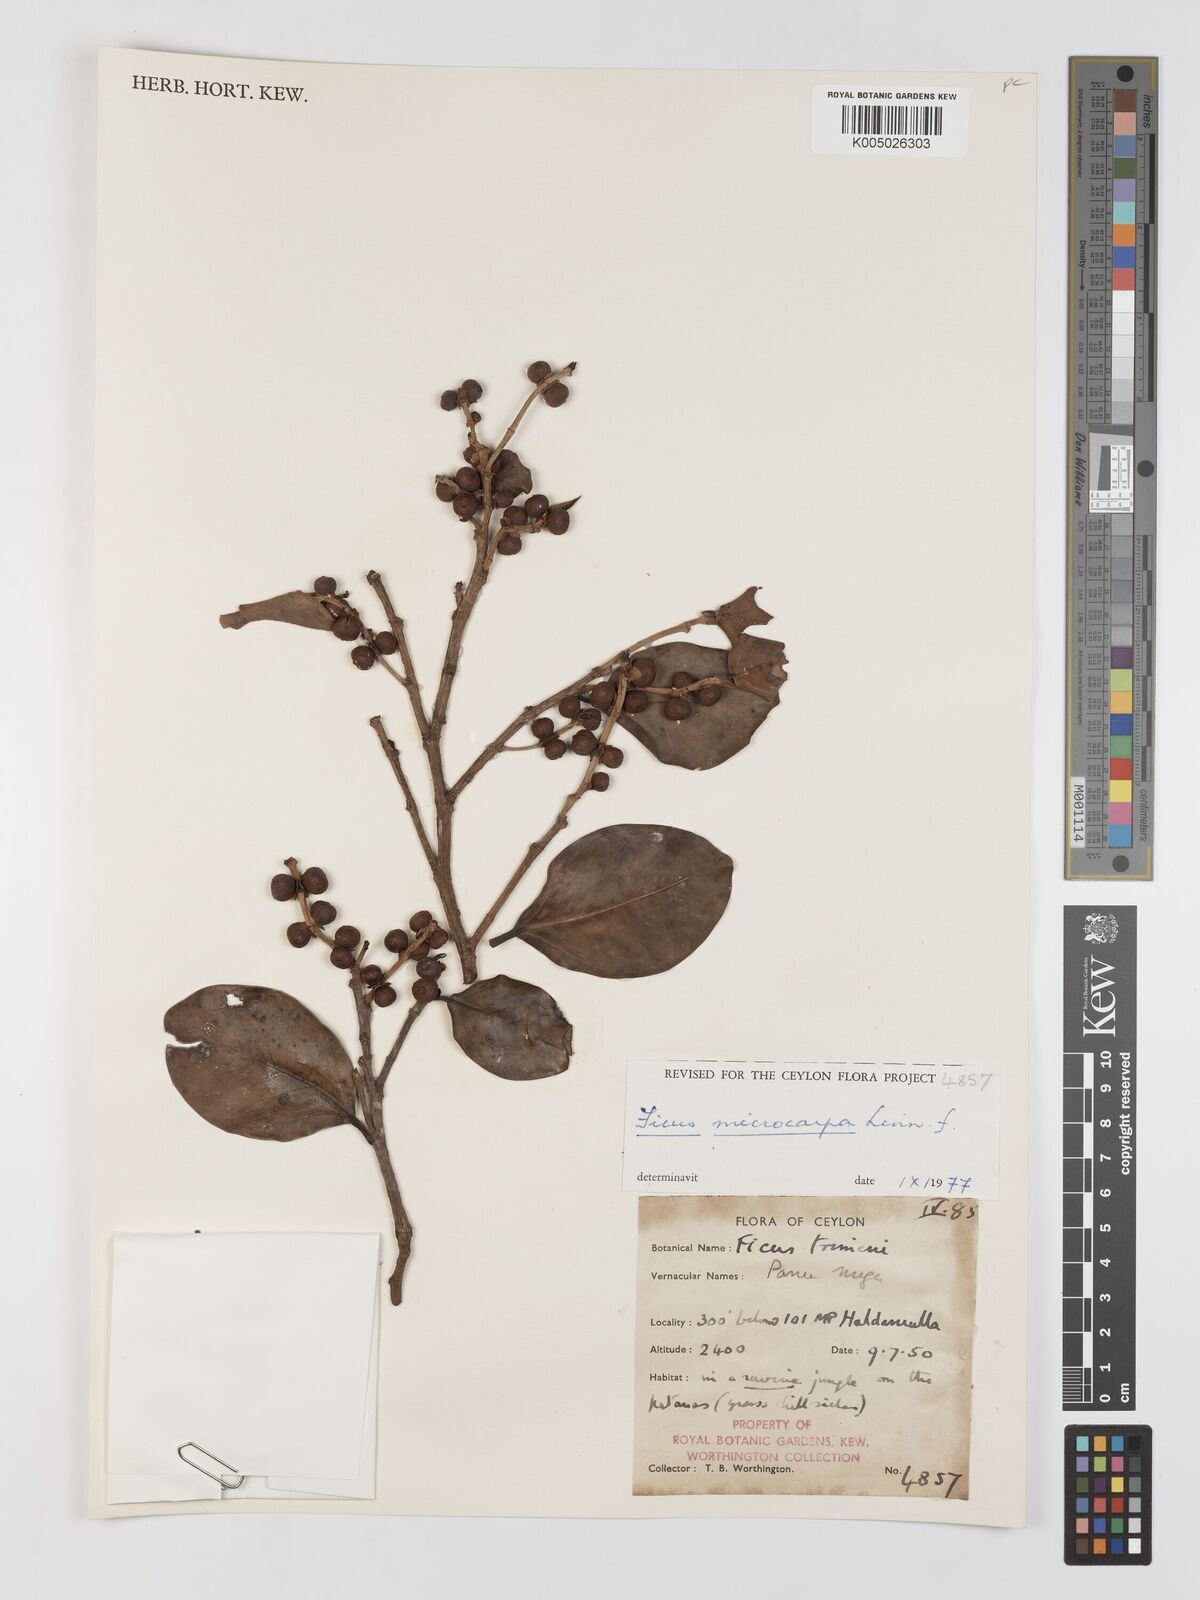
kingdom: Plantae
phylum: Tracheophyta
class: Magnoliopsida
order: Rosales
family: Moraceae
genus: Ficus
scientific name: Ficus
